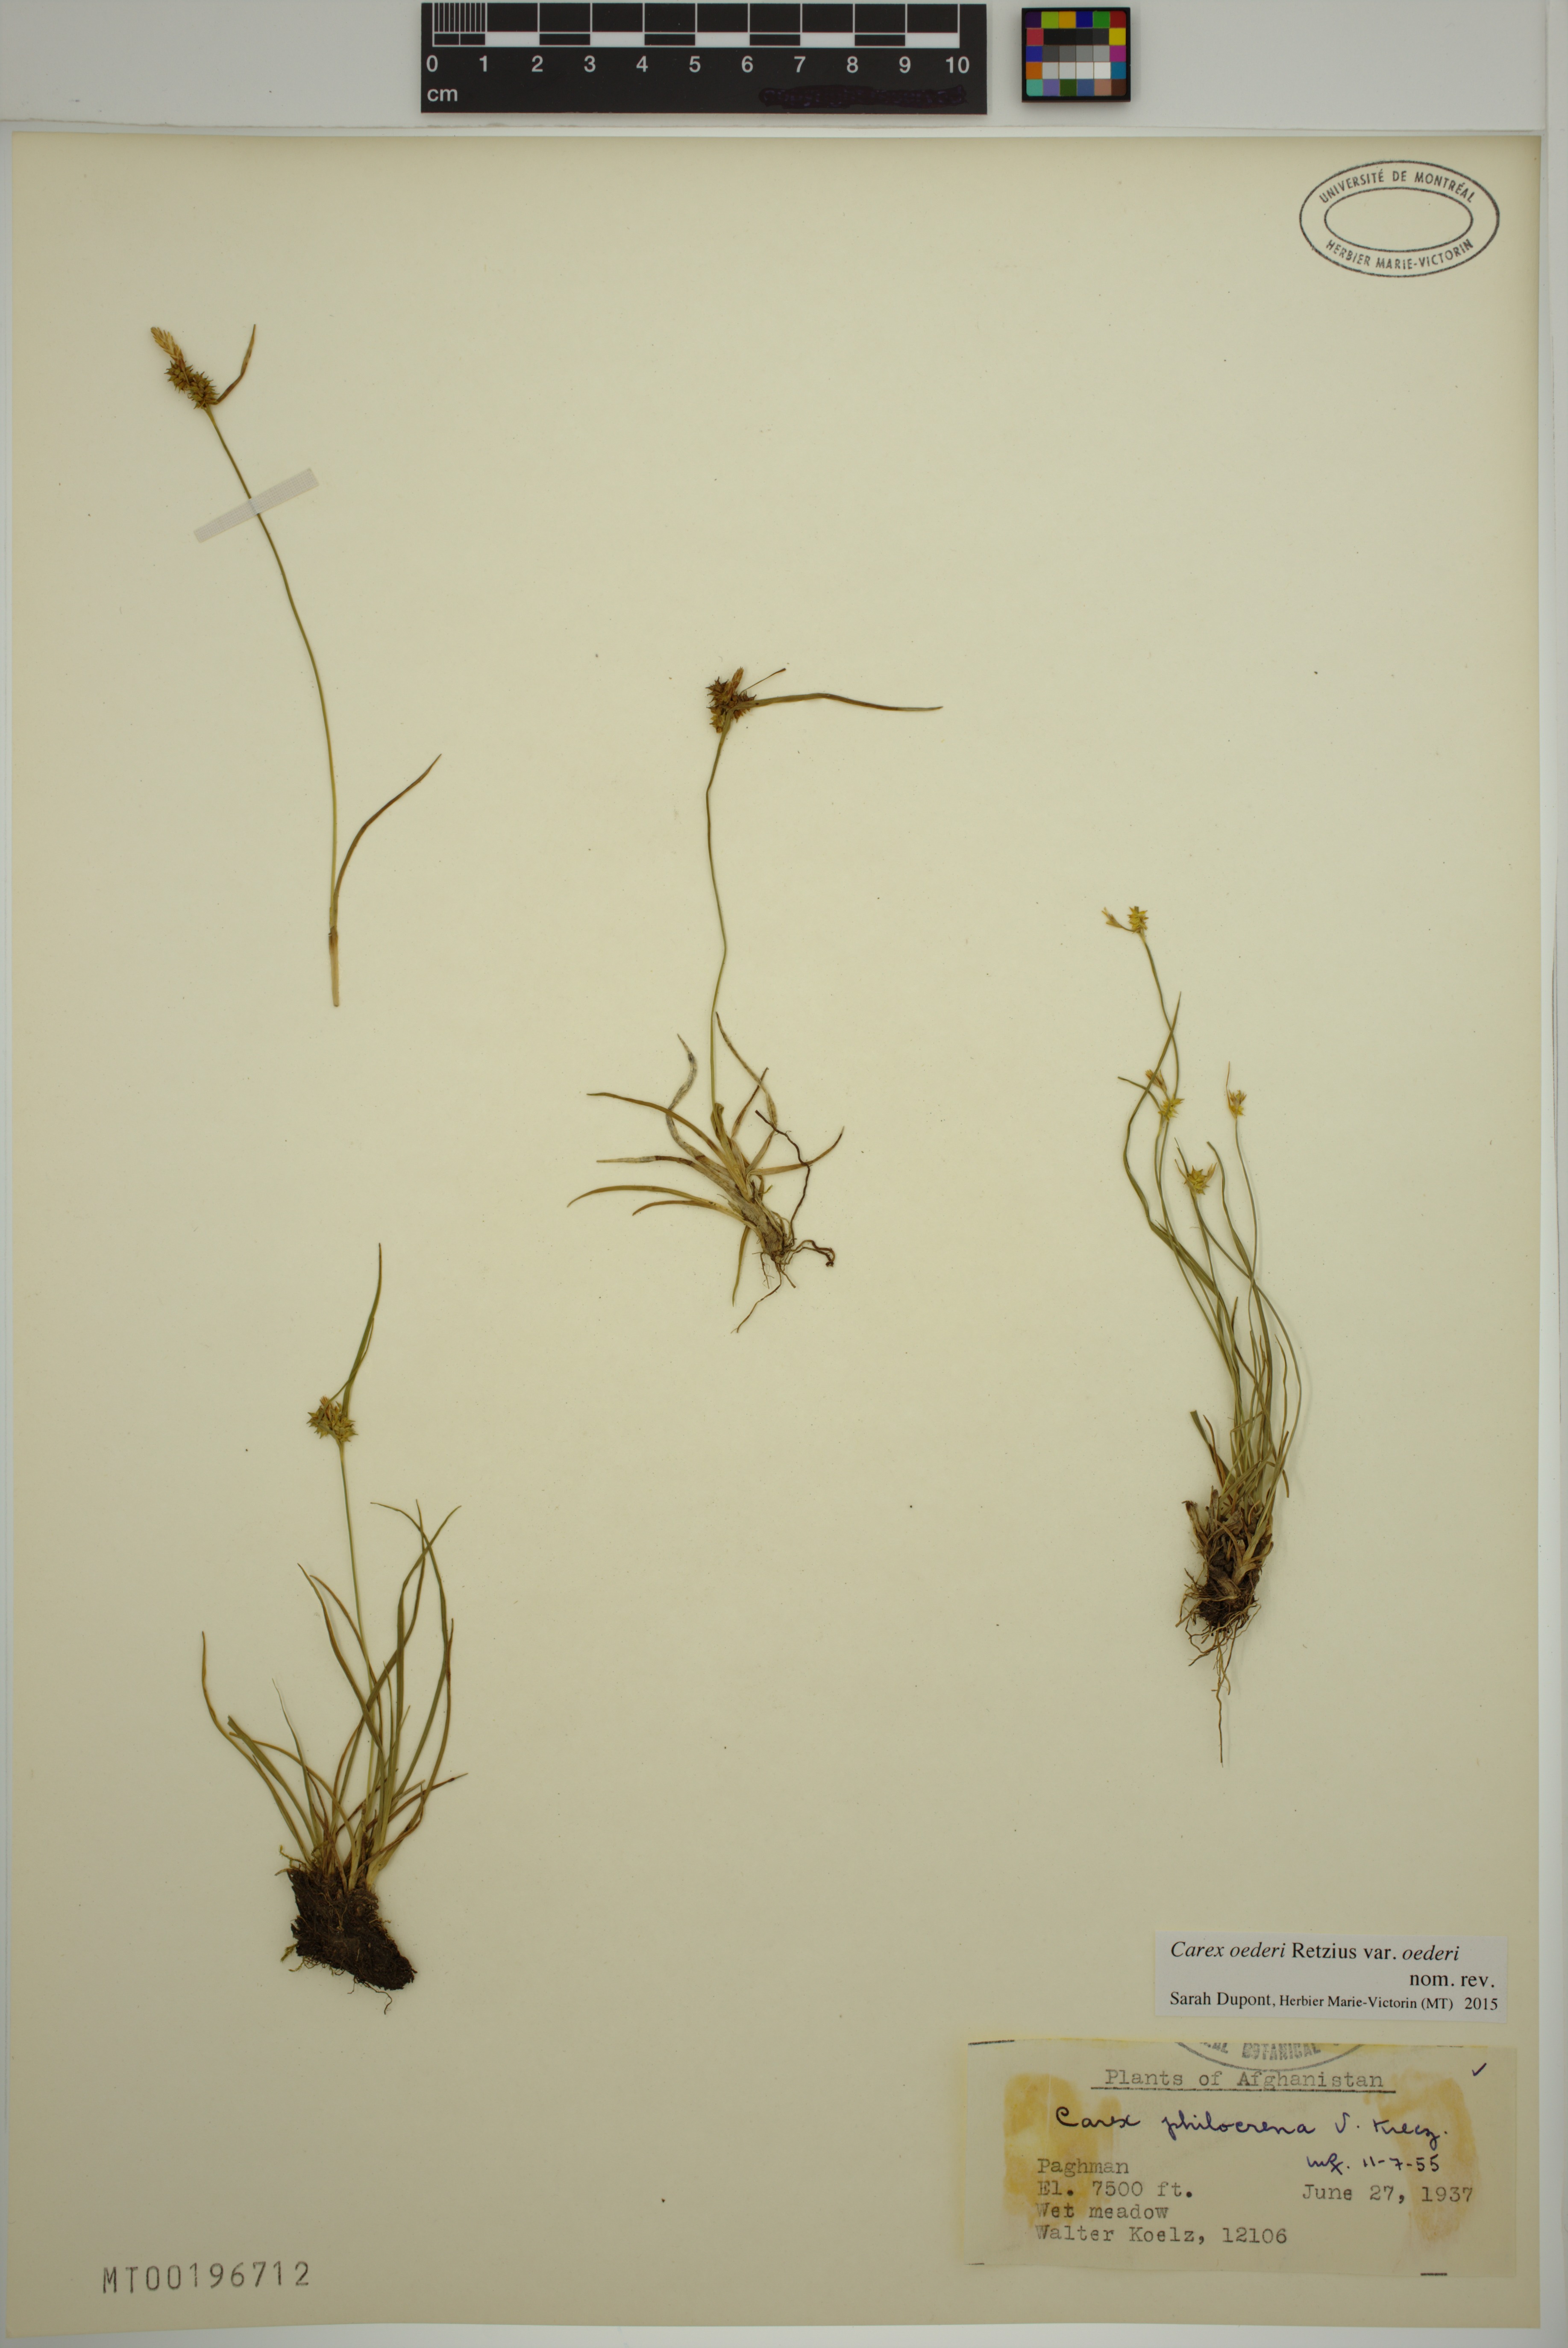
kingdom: Plantae
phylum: Tracheophyta
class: Liliopsida
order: Poales
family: Cyperaceae
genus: Carex
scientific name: Carex oederi
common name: Common & small-fruited yellow-sedge
